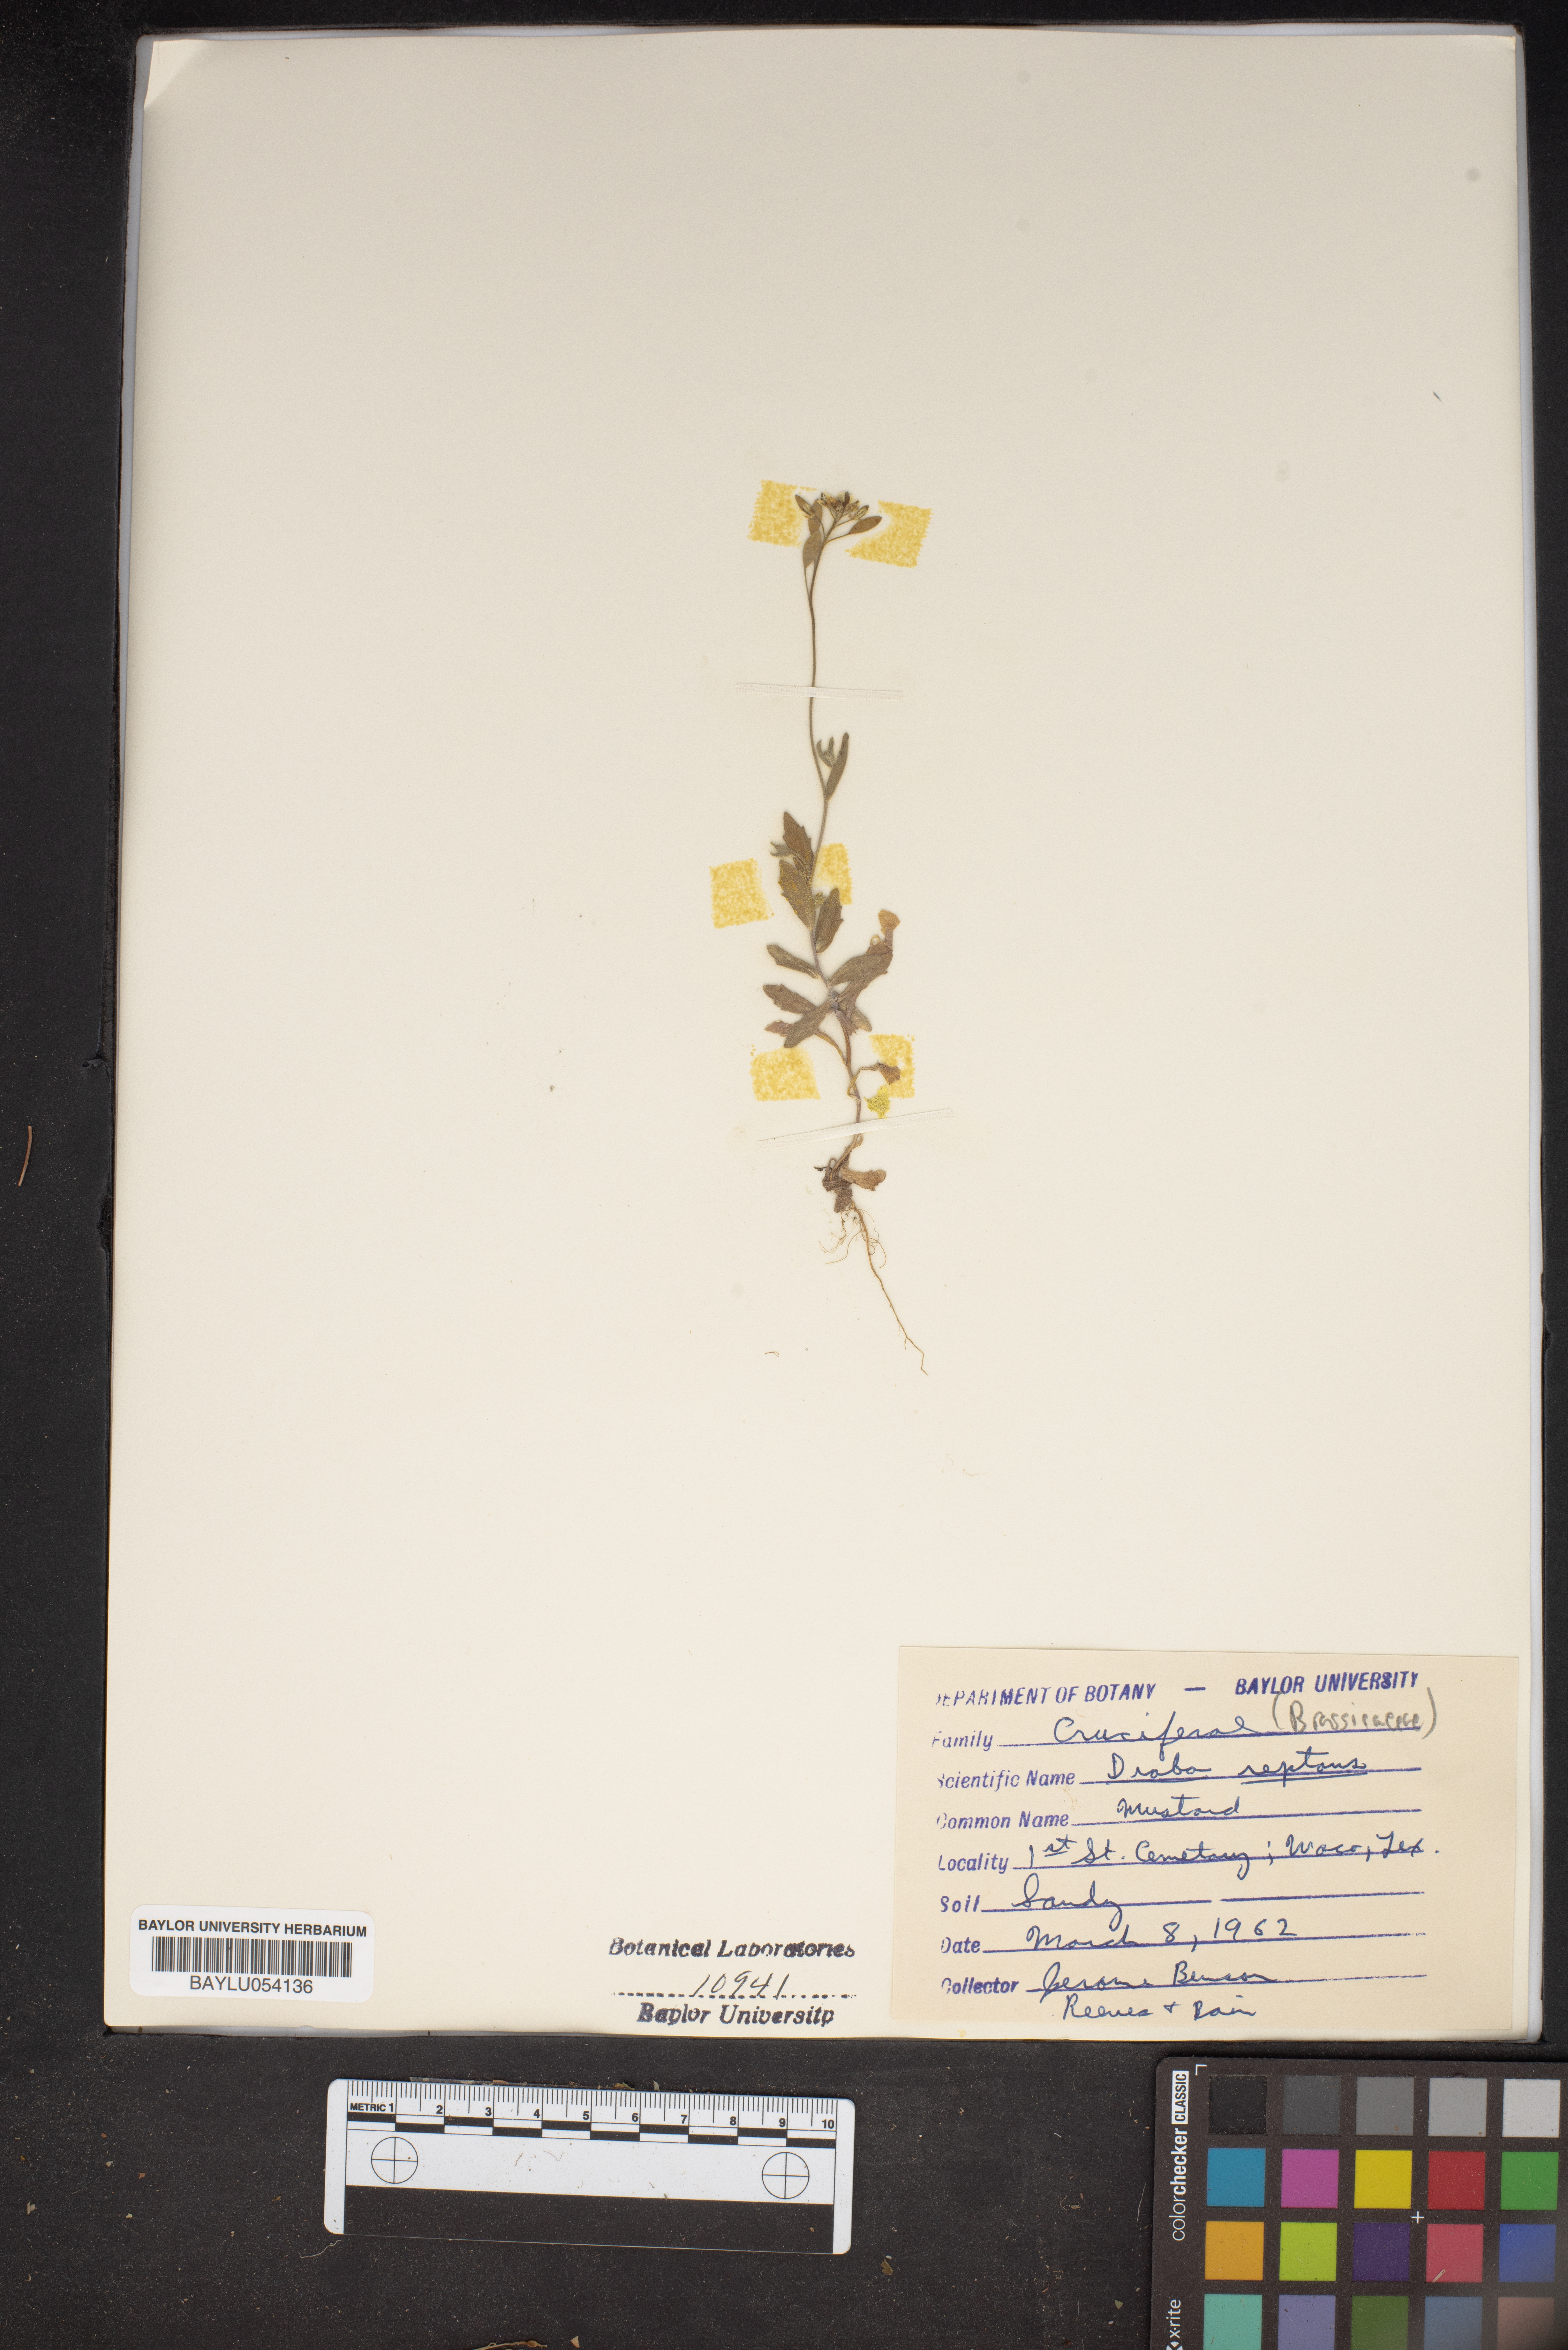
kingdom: Plantae
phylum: Tracheophyta
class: Magnoliopsida
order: Brassicales
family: Brassicaceae
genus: Tomostima
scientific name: Tomostima reptans
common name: Carolina draba
